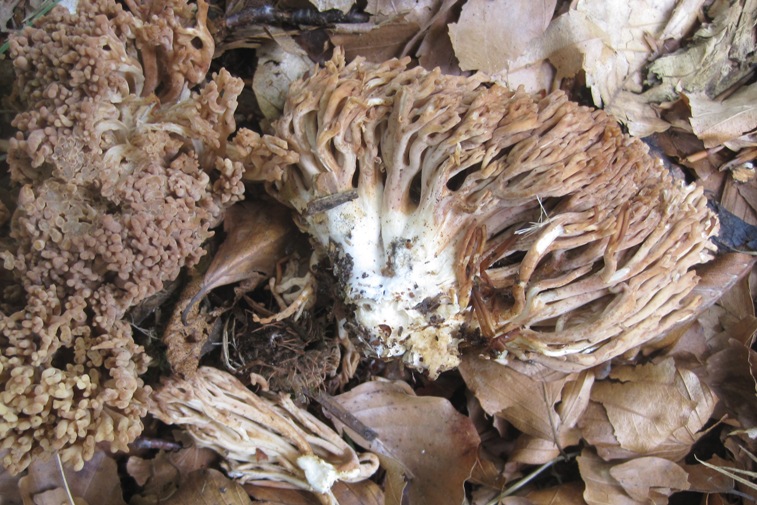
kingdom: Fungi
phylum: Basidiomycota
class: Agaricomycetes
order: Gomphales
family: Gomphaceae
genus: Ramaria
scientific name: Ramaria krieglsteineri
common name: smalsporet koralsvamp
